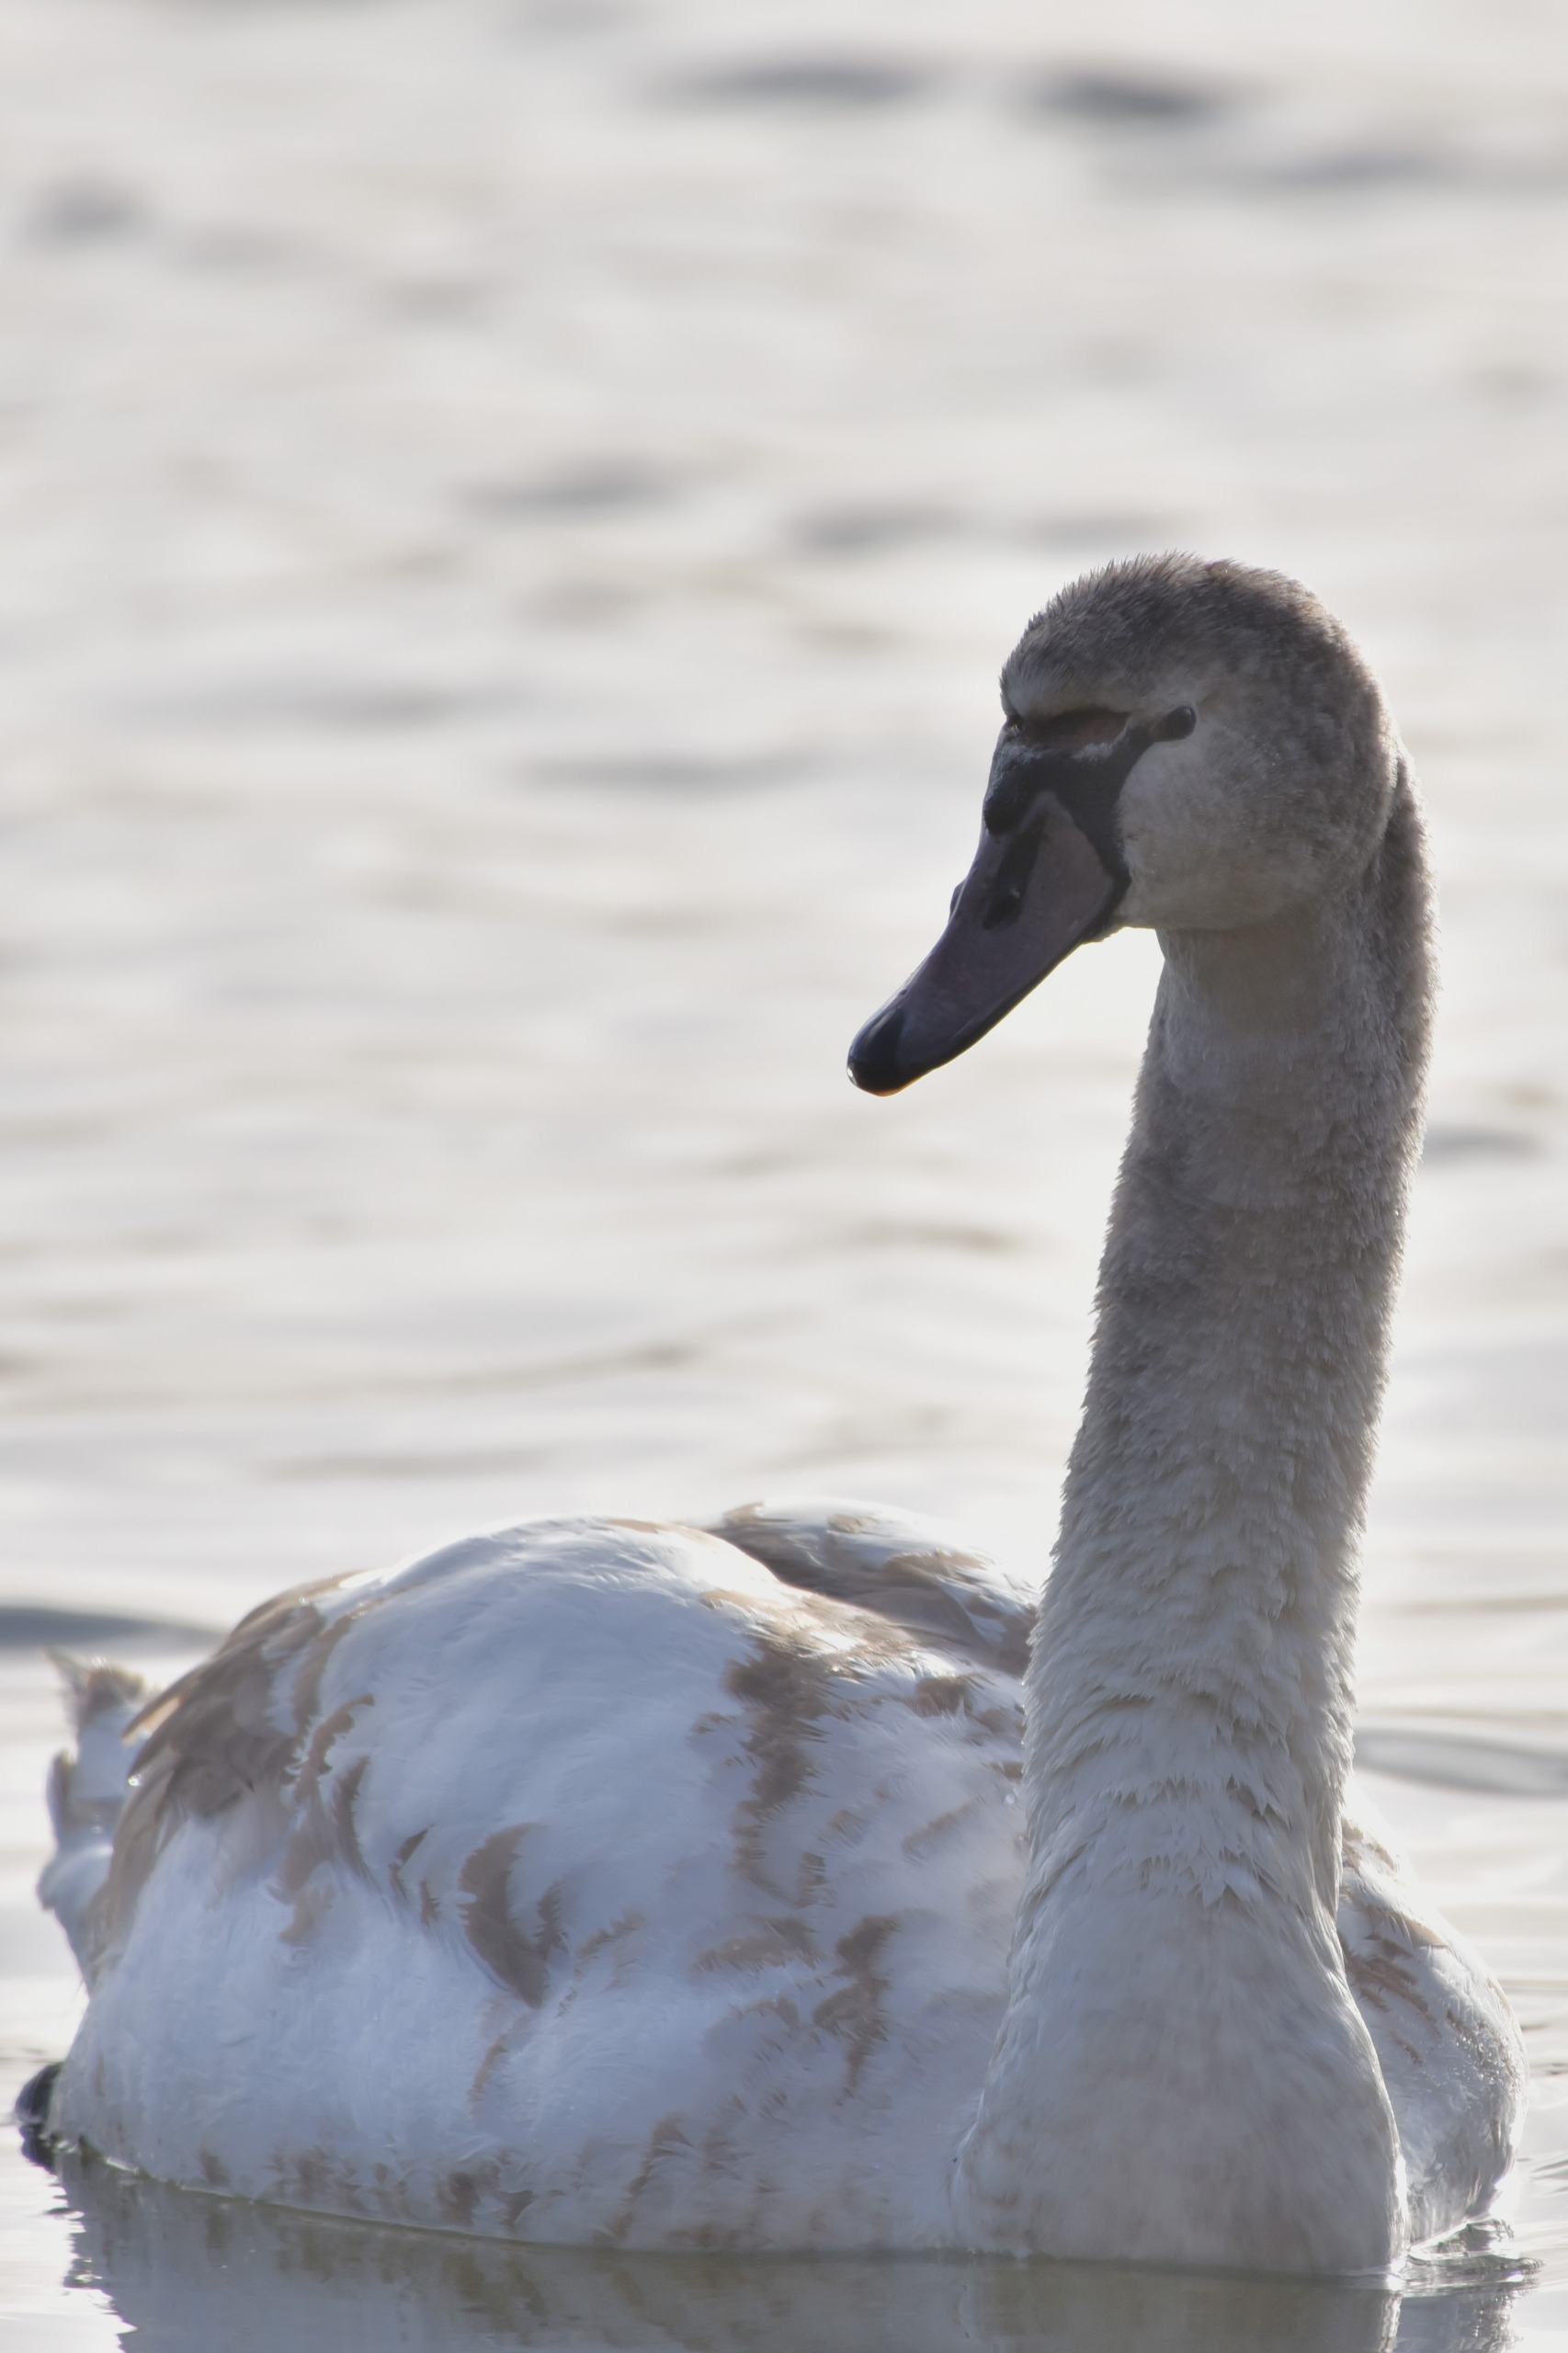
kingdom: Animalia
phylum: Chordata
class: Aves
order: Anseriformes
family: Anatidae
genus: Cygnus
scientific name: Cygnus olor
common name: Knopsvane
